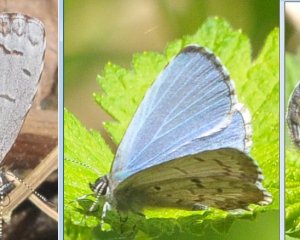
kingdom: Animalia
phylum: Arthropoda
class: Insecta
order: Lepidoptera
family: Lycaenidae
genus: Celastrina
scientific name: Celastrina lucia
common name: Northern Spring Azure
